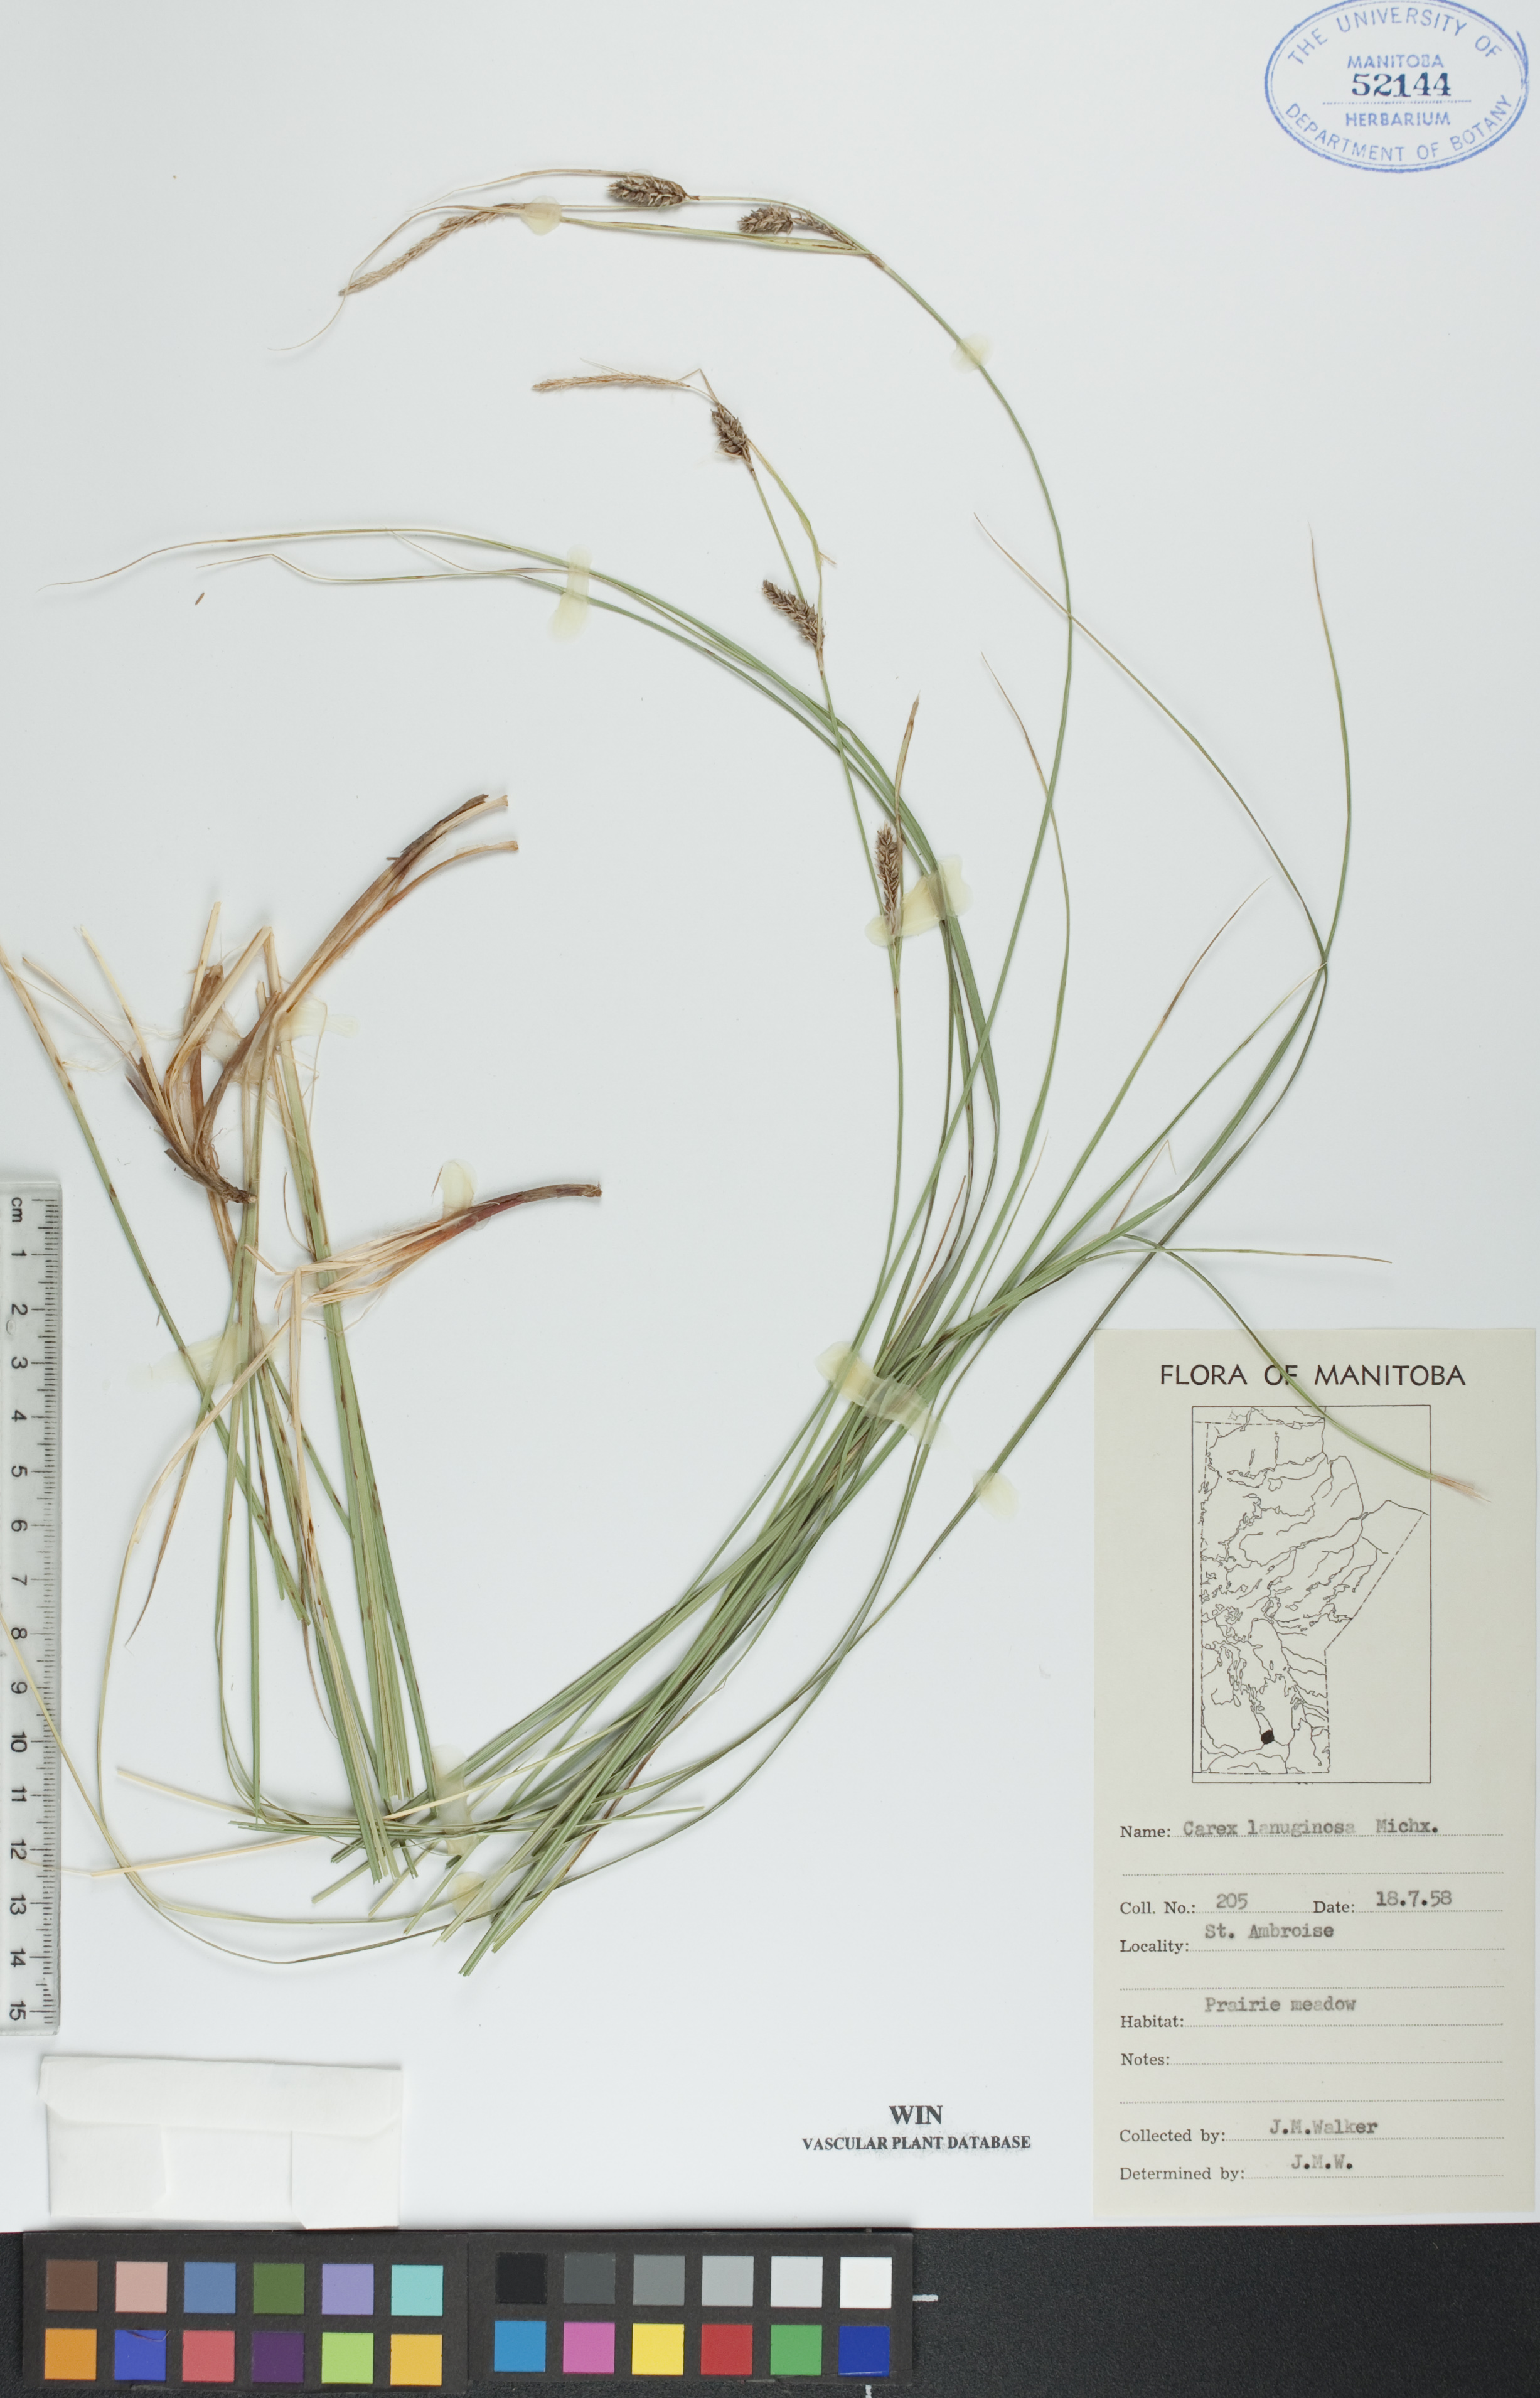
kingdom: Plantae
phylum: Tracheophyta
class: Liliopsida
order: Poales
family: Cyperaceae
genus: Carex
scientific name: Carex lasiocarpa
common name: Slender sedge
